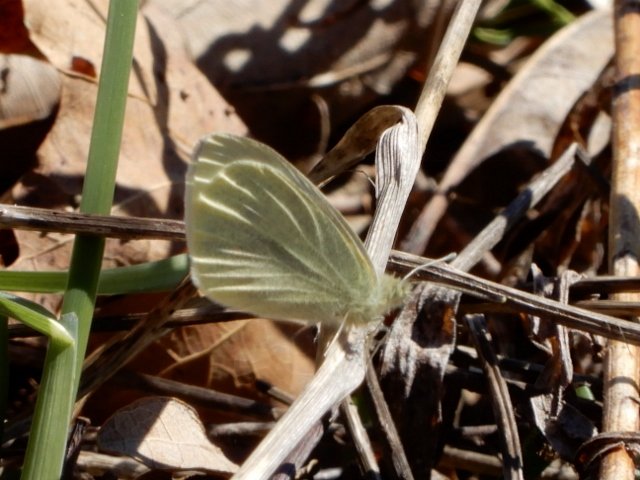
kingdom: Animalia
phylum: Arthropoda
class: Insecta
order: Lepidoptera
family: Pieridae
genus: Pieris
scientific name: Pieris rapae
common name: Cabbage White
